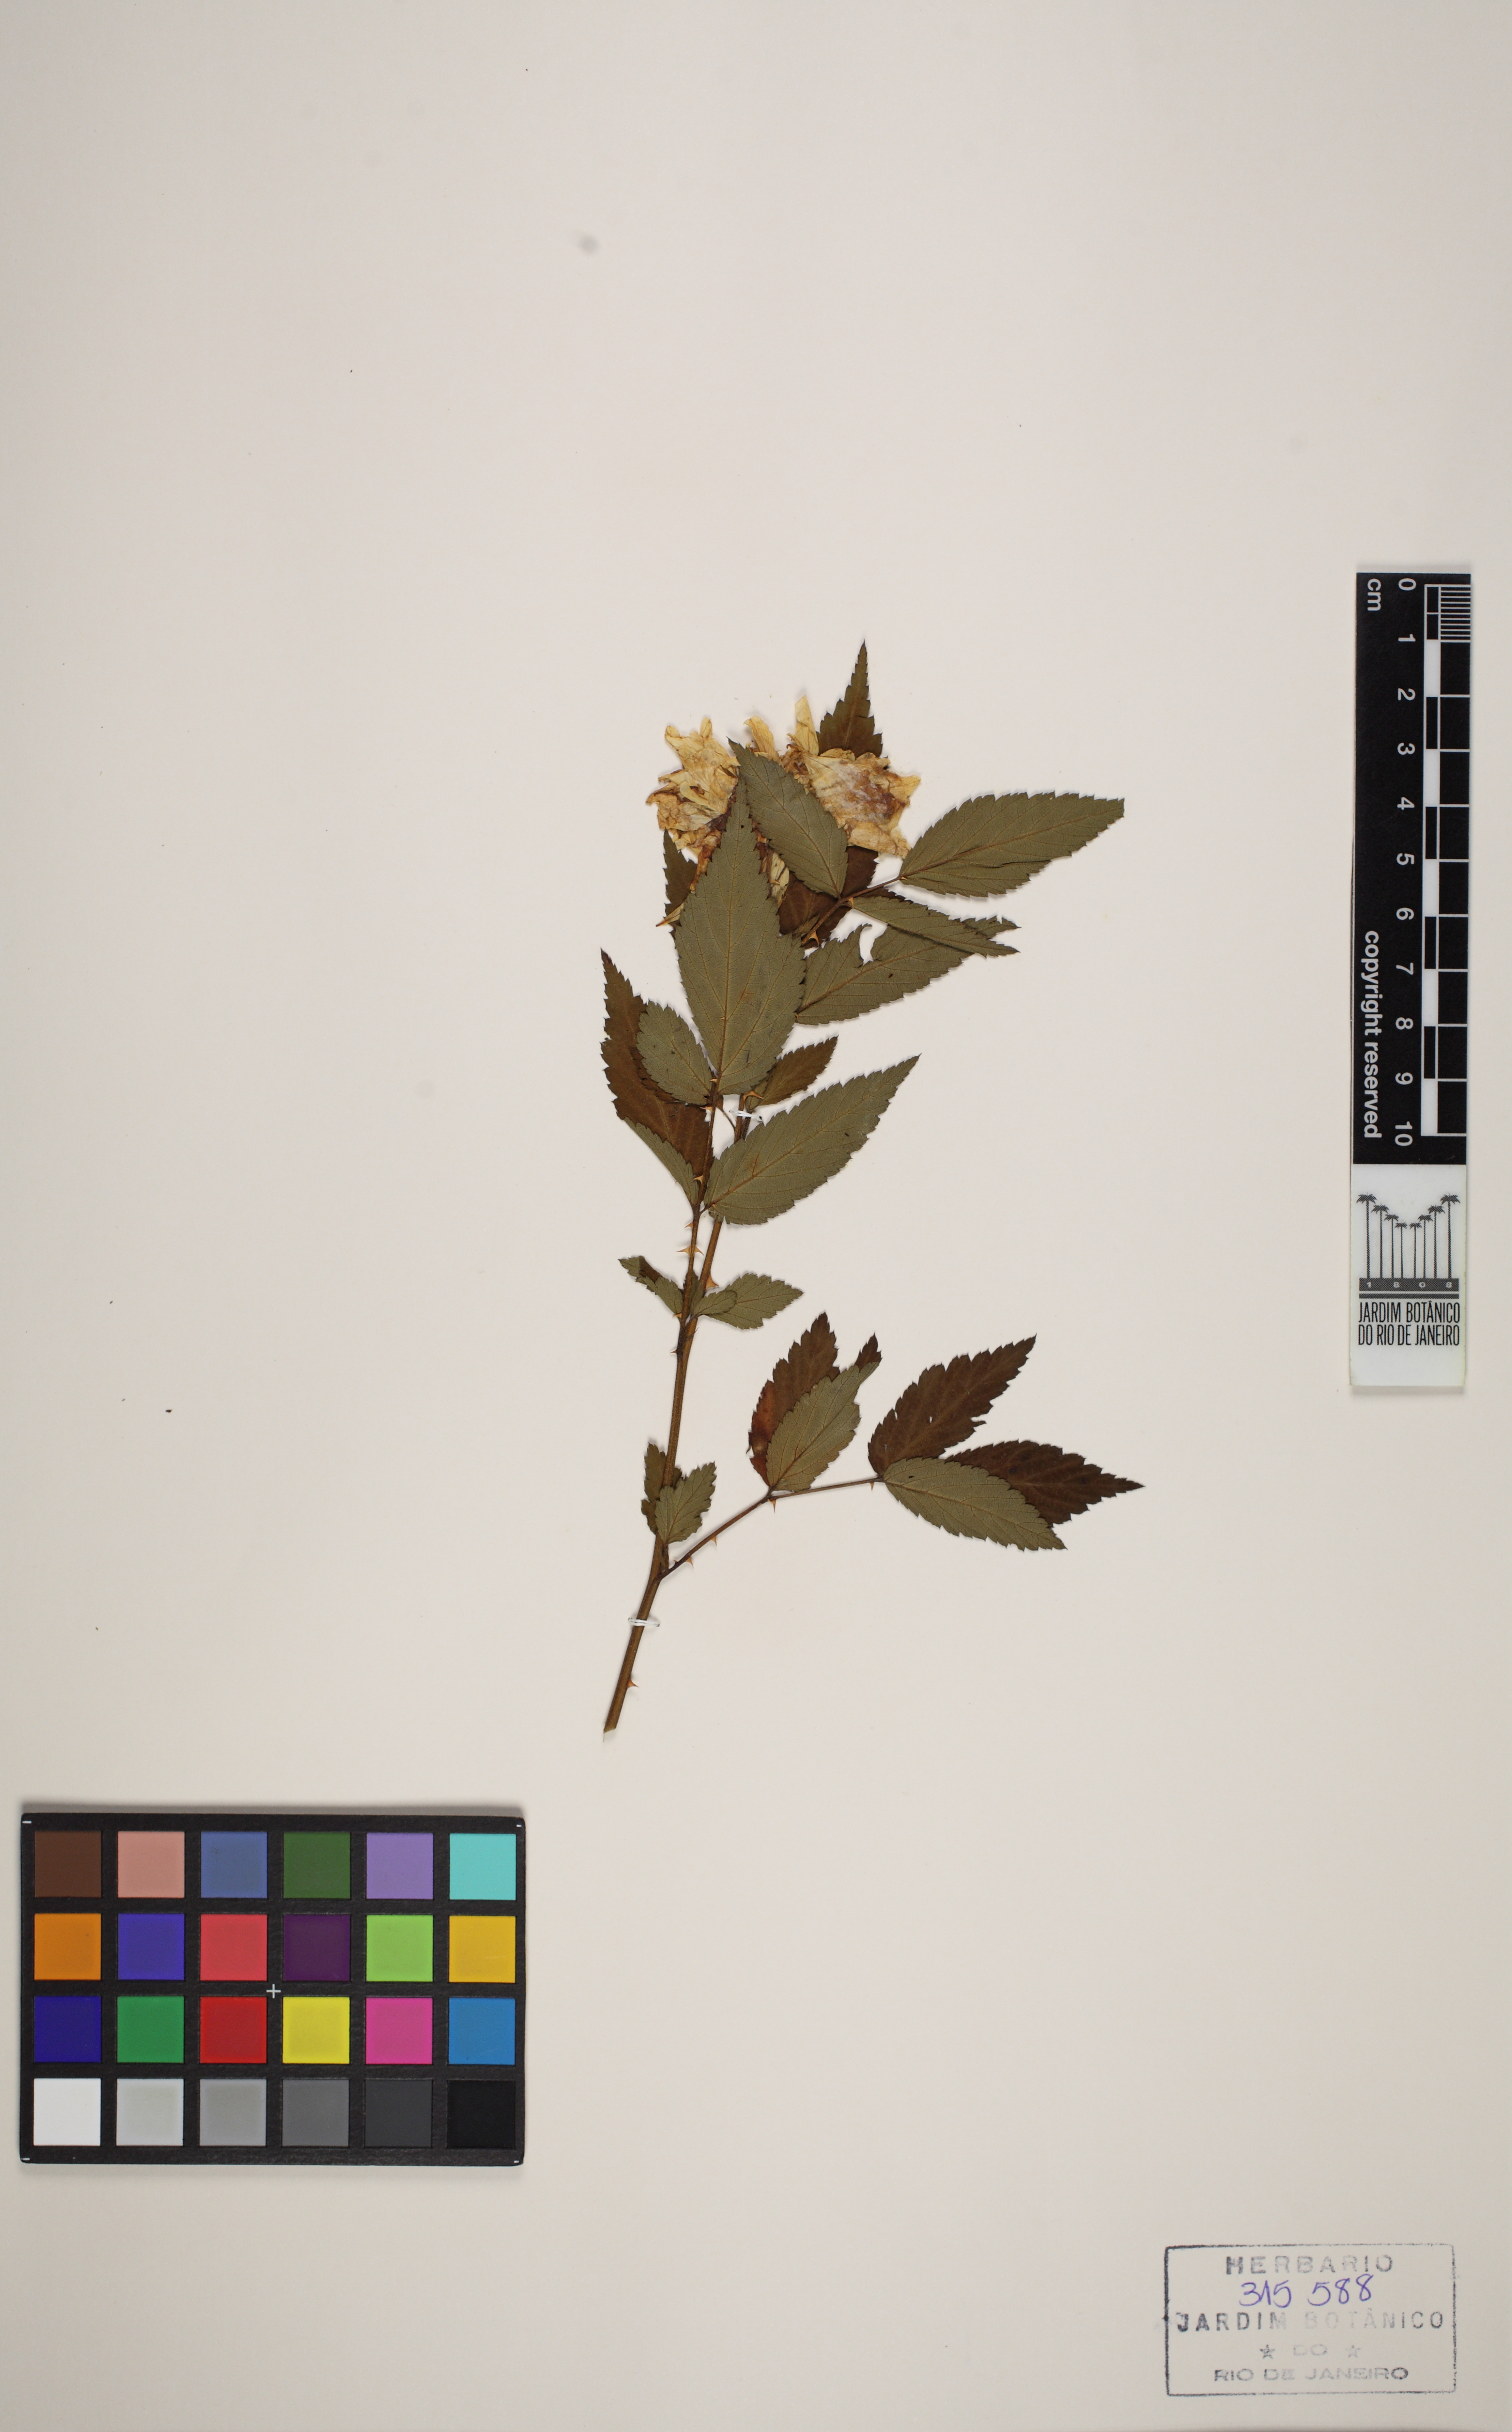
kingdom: Plantae
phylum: Tracheophyta
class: Magnoliopsida
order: Rosales
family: Rosaceae
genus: Rubus
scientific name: Rubus rosifolius
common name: Roseleaf raspberry
